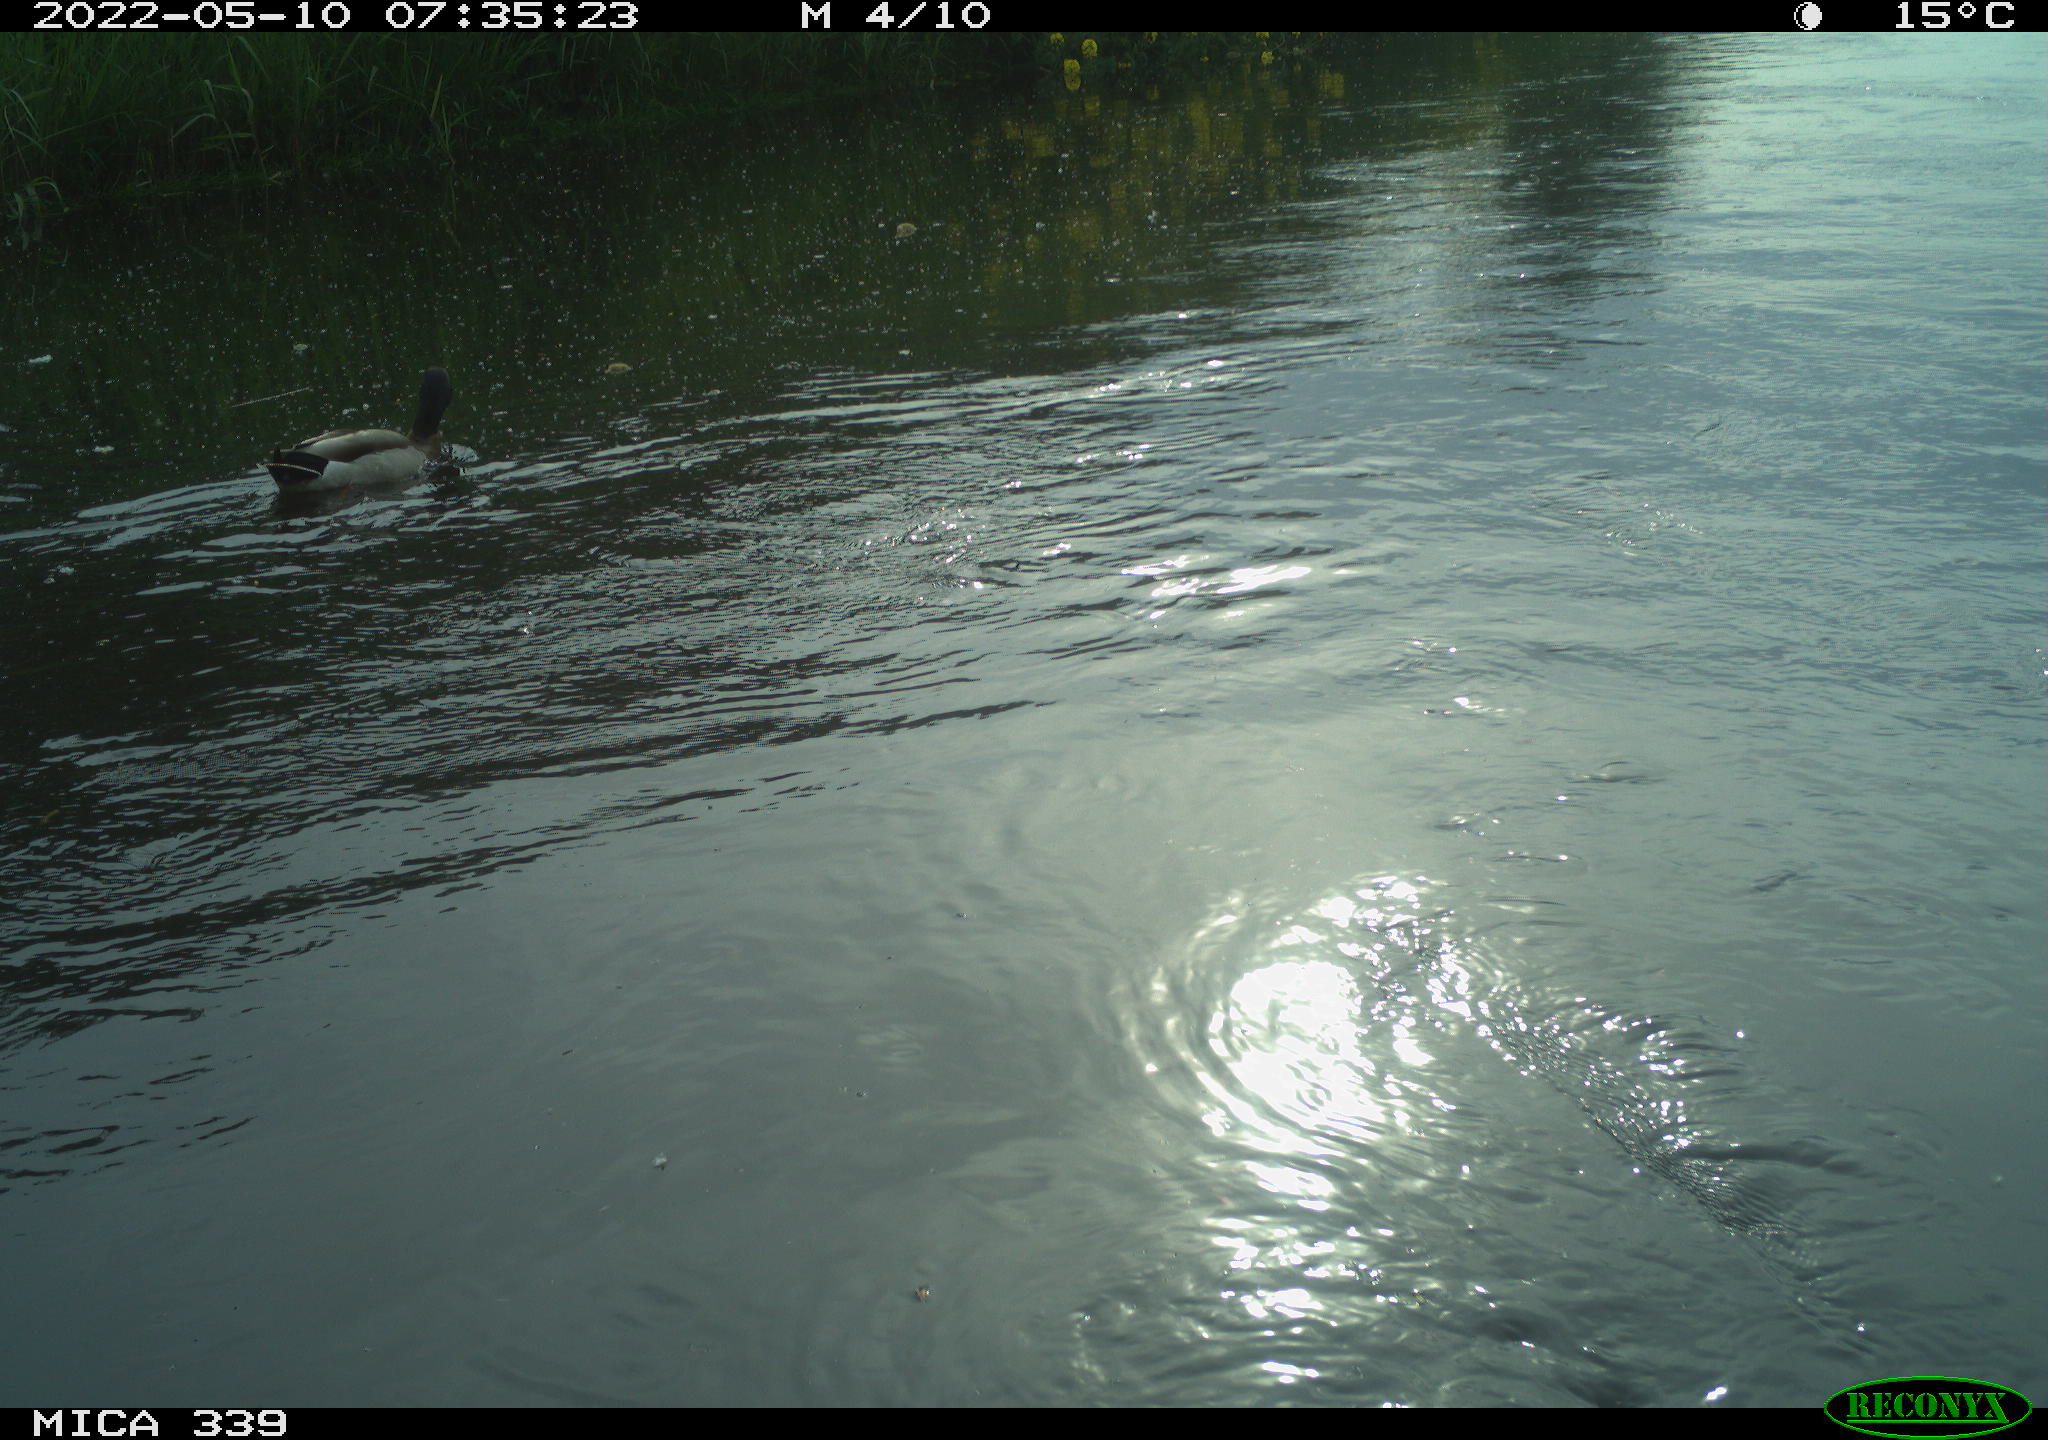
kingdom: Animalia
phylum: Chordata
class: Aves
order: Anseriformes
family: Anatidae
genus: Anas
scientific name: Anas platyrhynchos
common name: Mallard
